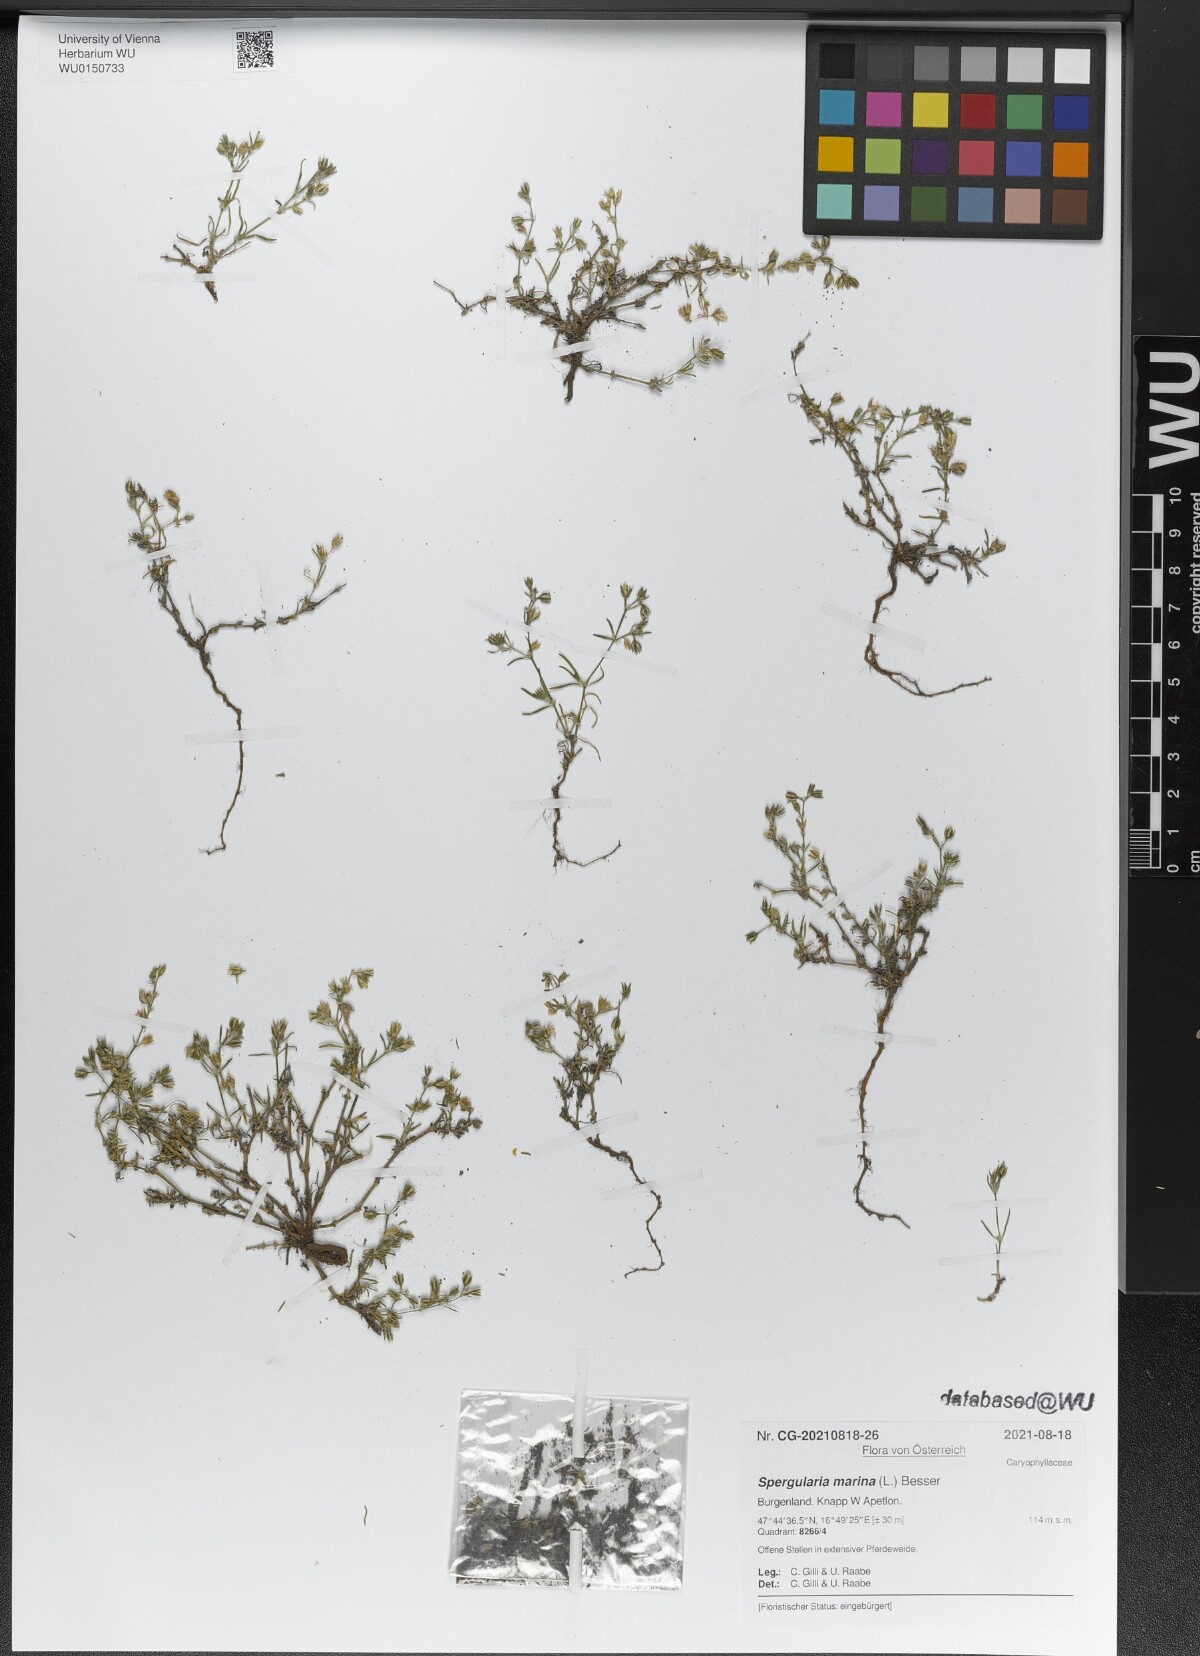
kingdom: Plantae
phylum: Tracheophyta
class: Magnoliopsida
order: Caryophyllales
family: Caryophyllaceae
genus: Spergularia
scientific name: Spergularia marina
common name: Lesser sea-spurrey
